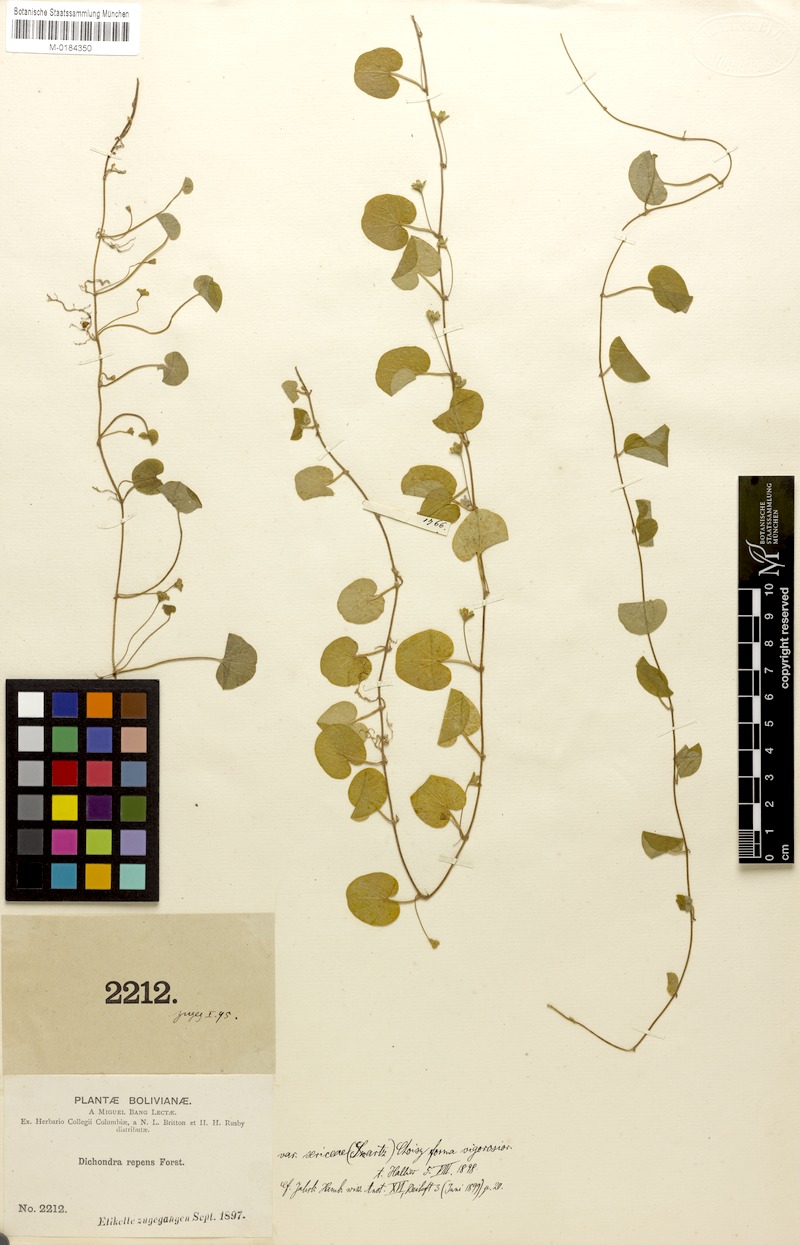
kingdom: Plantae
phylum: Tracheophyta
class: Magnoliopsida
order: Solanales
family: Convolvulaceae
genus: Dichondra
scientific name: Dichondra sericea
